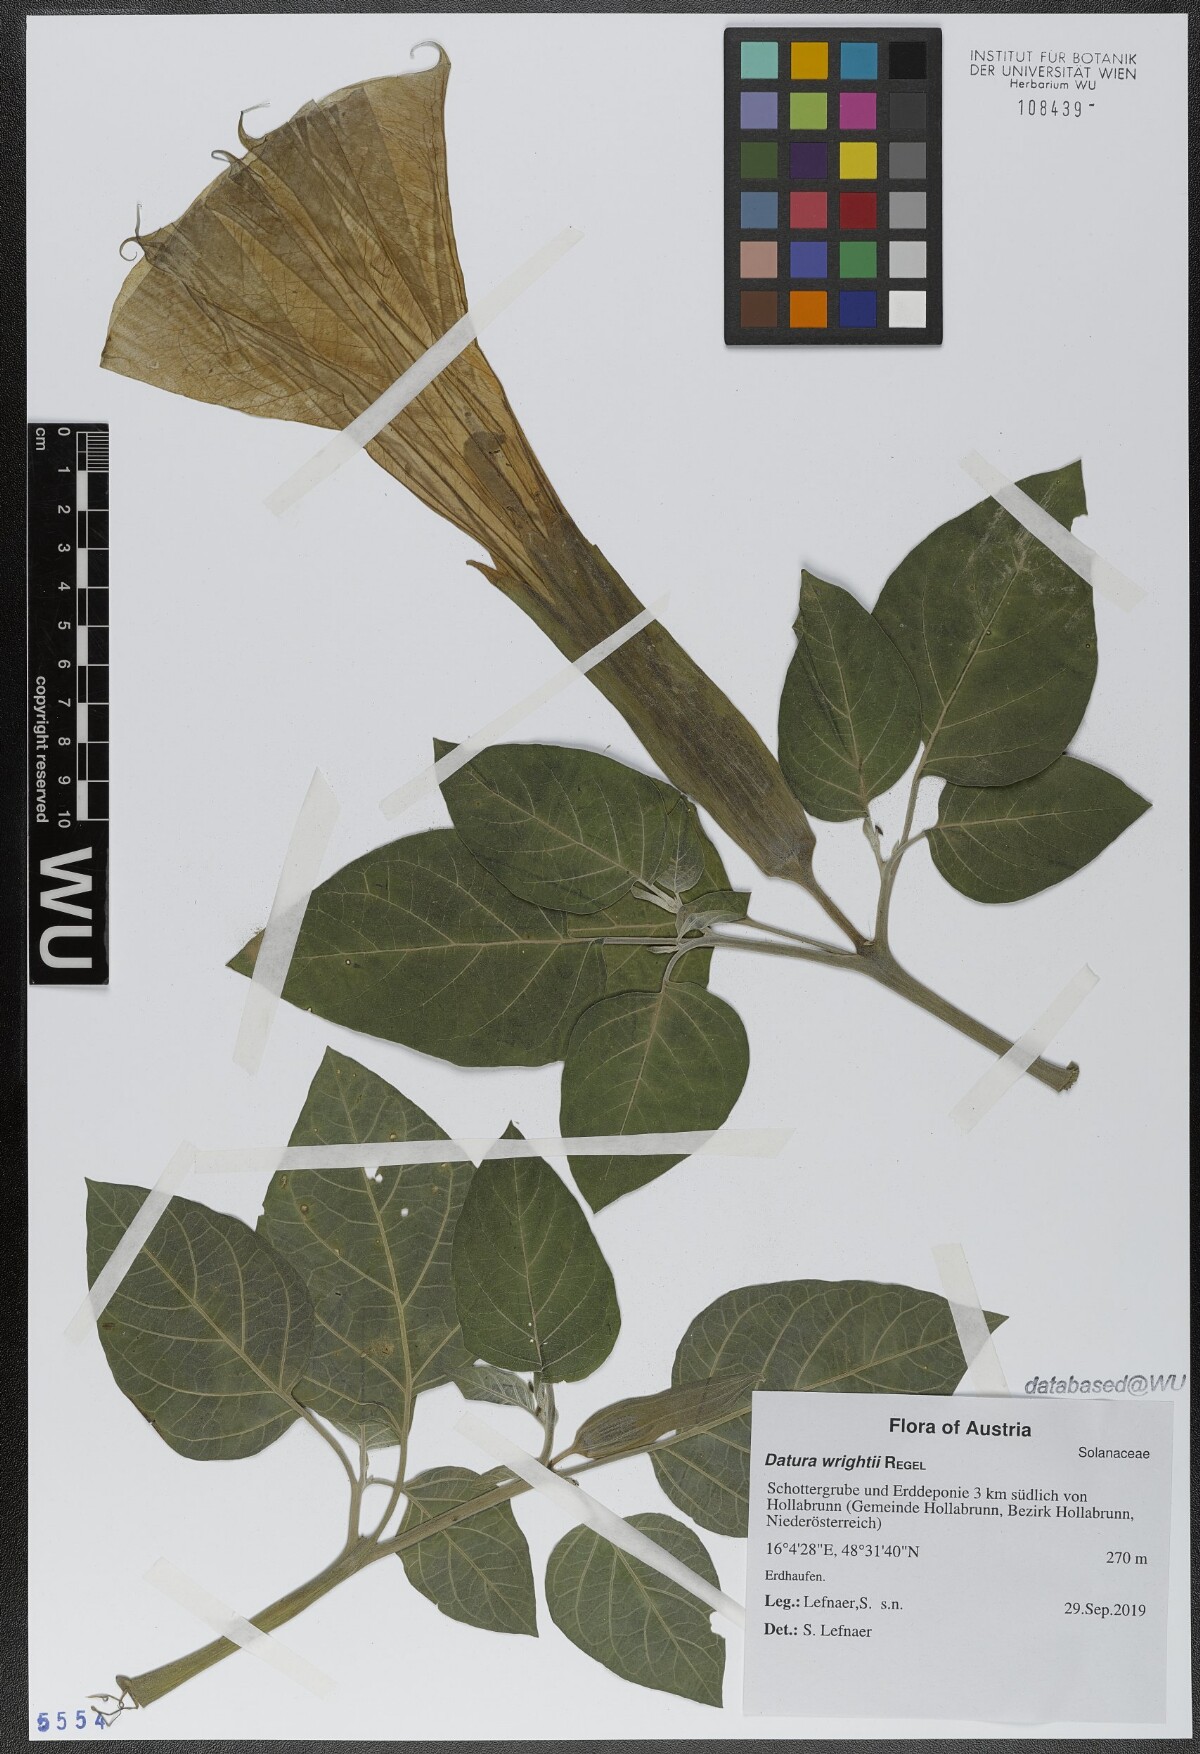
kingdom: Plantae
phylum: Tracheophyta
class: Magnoliopsida
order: Solanales
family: Solanaceae
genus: Datura
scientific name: Datura wrightii
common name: Sacred thorn-apple
